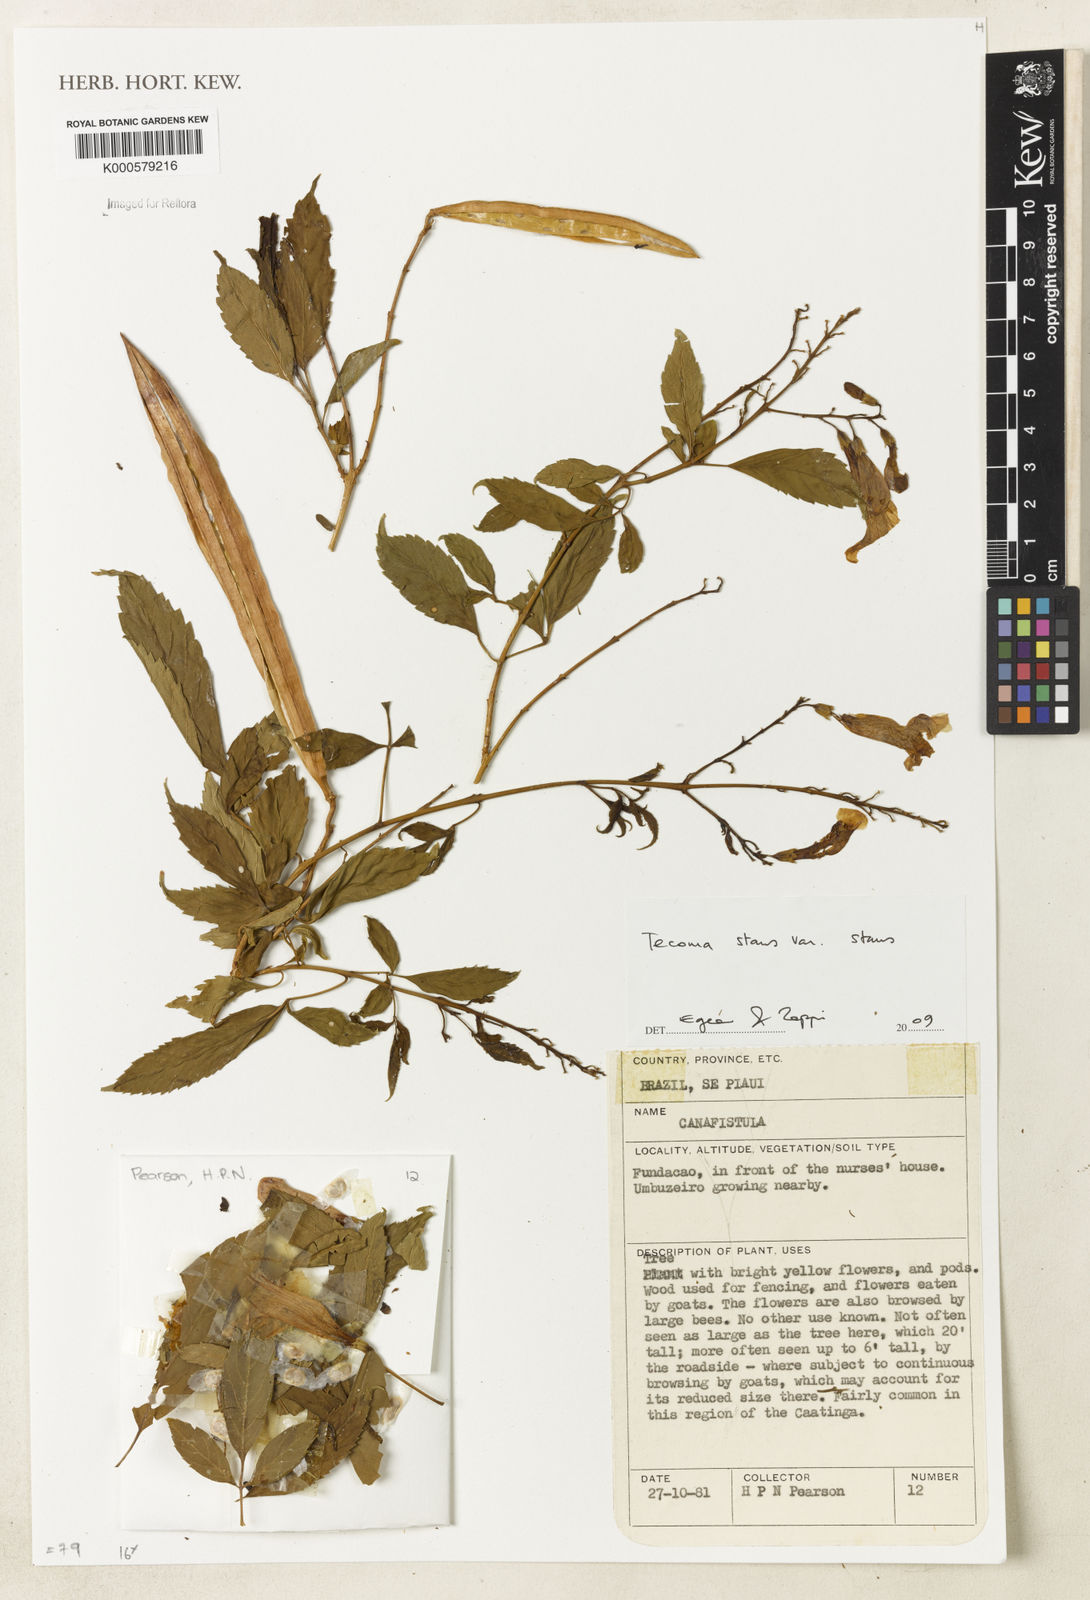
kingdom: Plantae
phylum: Tracheophyta
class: Magnoliopsida
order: Lamiales
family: Bignoniaceae
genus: Tecoma
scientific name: Tecoma stans
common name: Yellow trumpetbush
